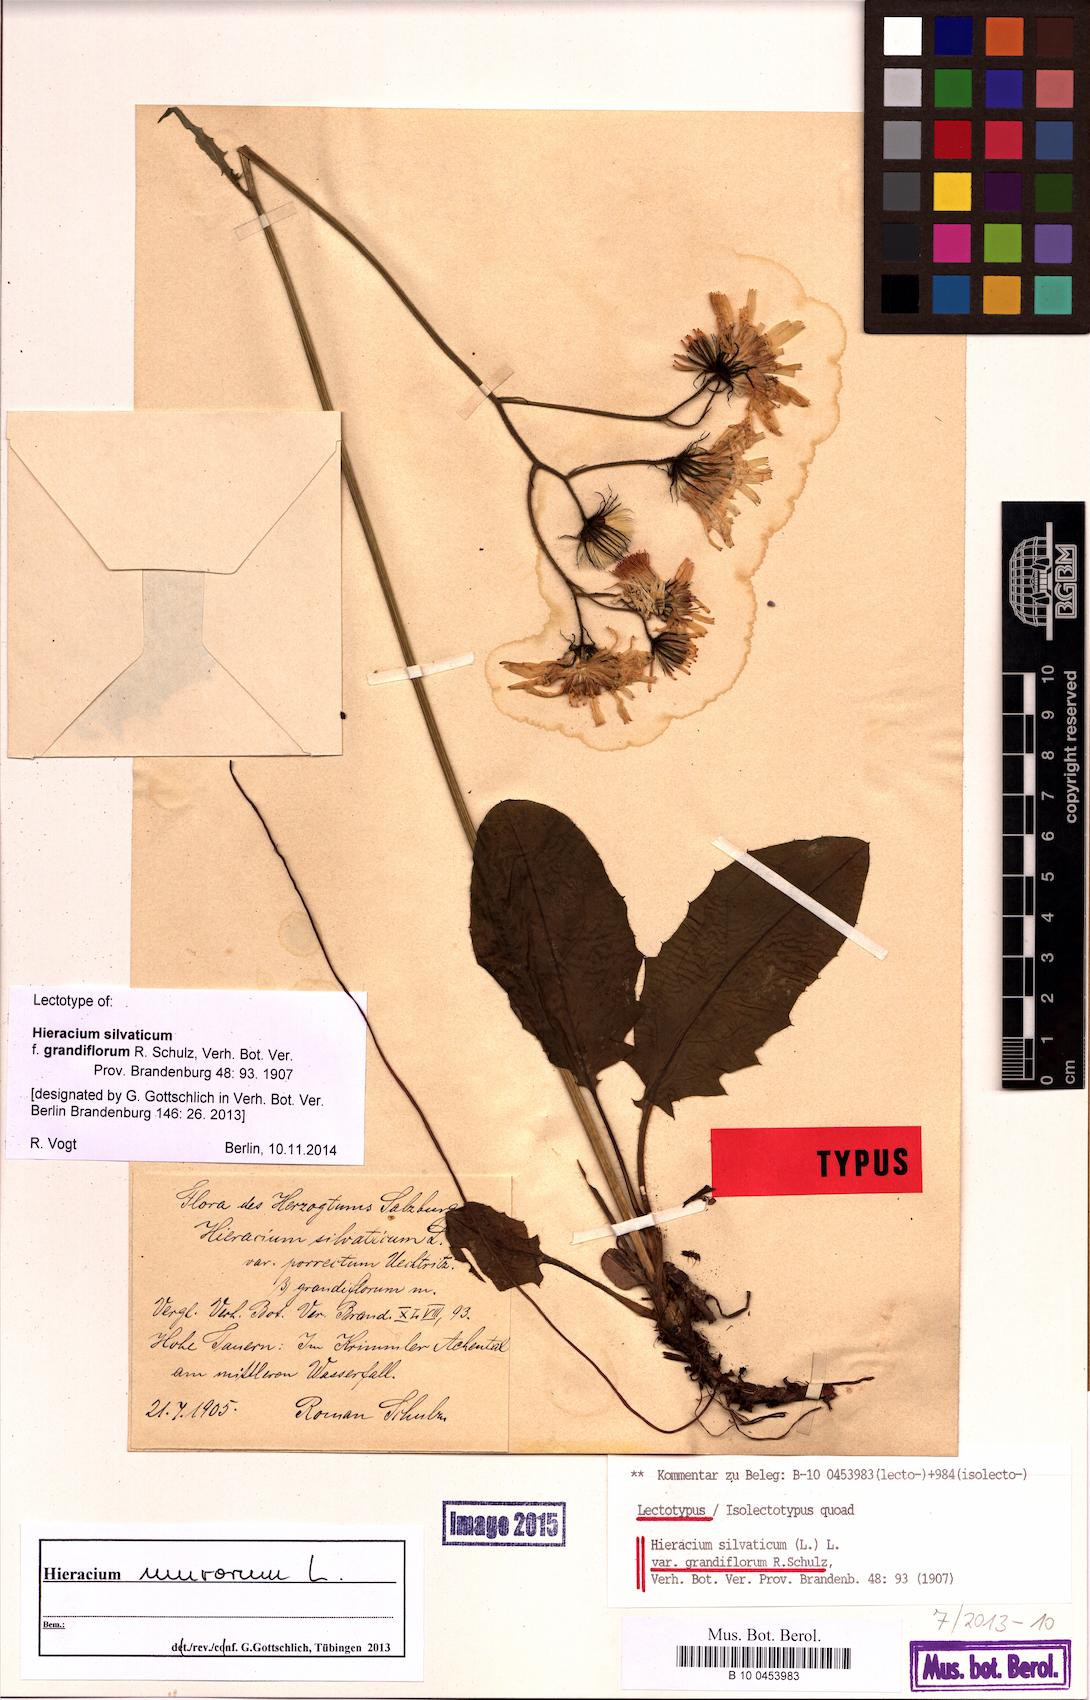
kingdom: Plantae
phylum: Tracheophyta
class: Magnoliopsida
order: Asterales
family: Asteraceae
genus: Hieracium
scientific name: Hieracium murorum
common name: Wall hawkweed
